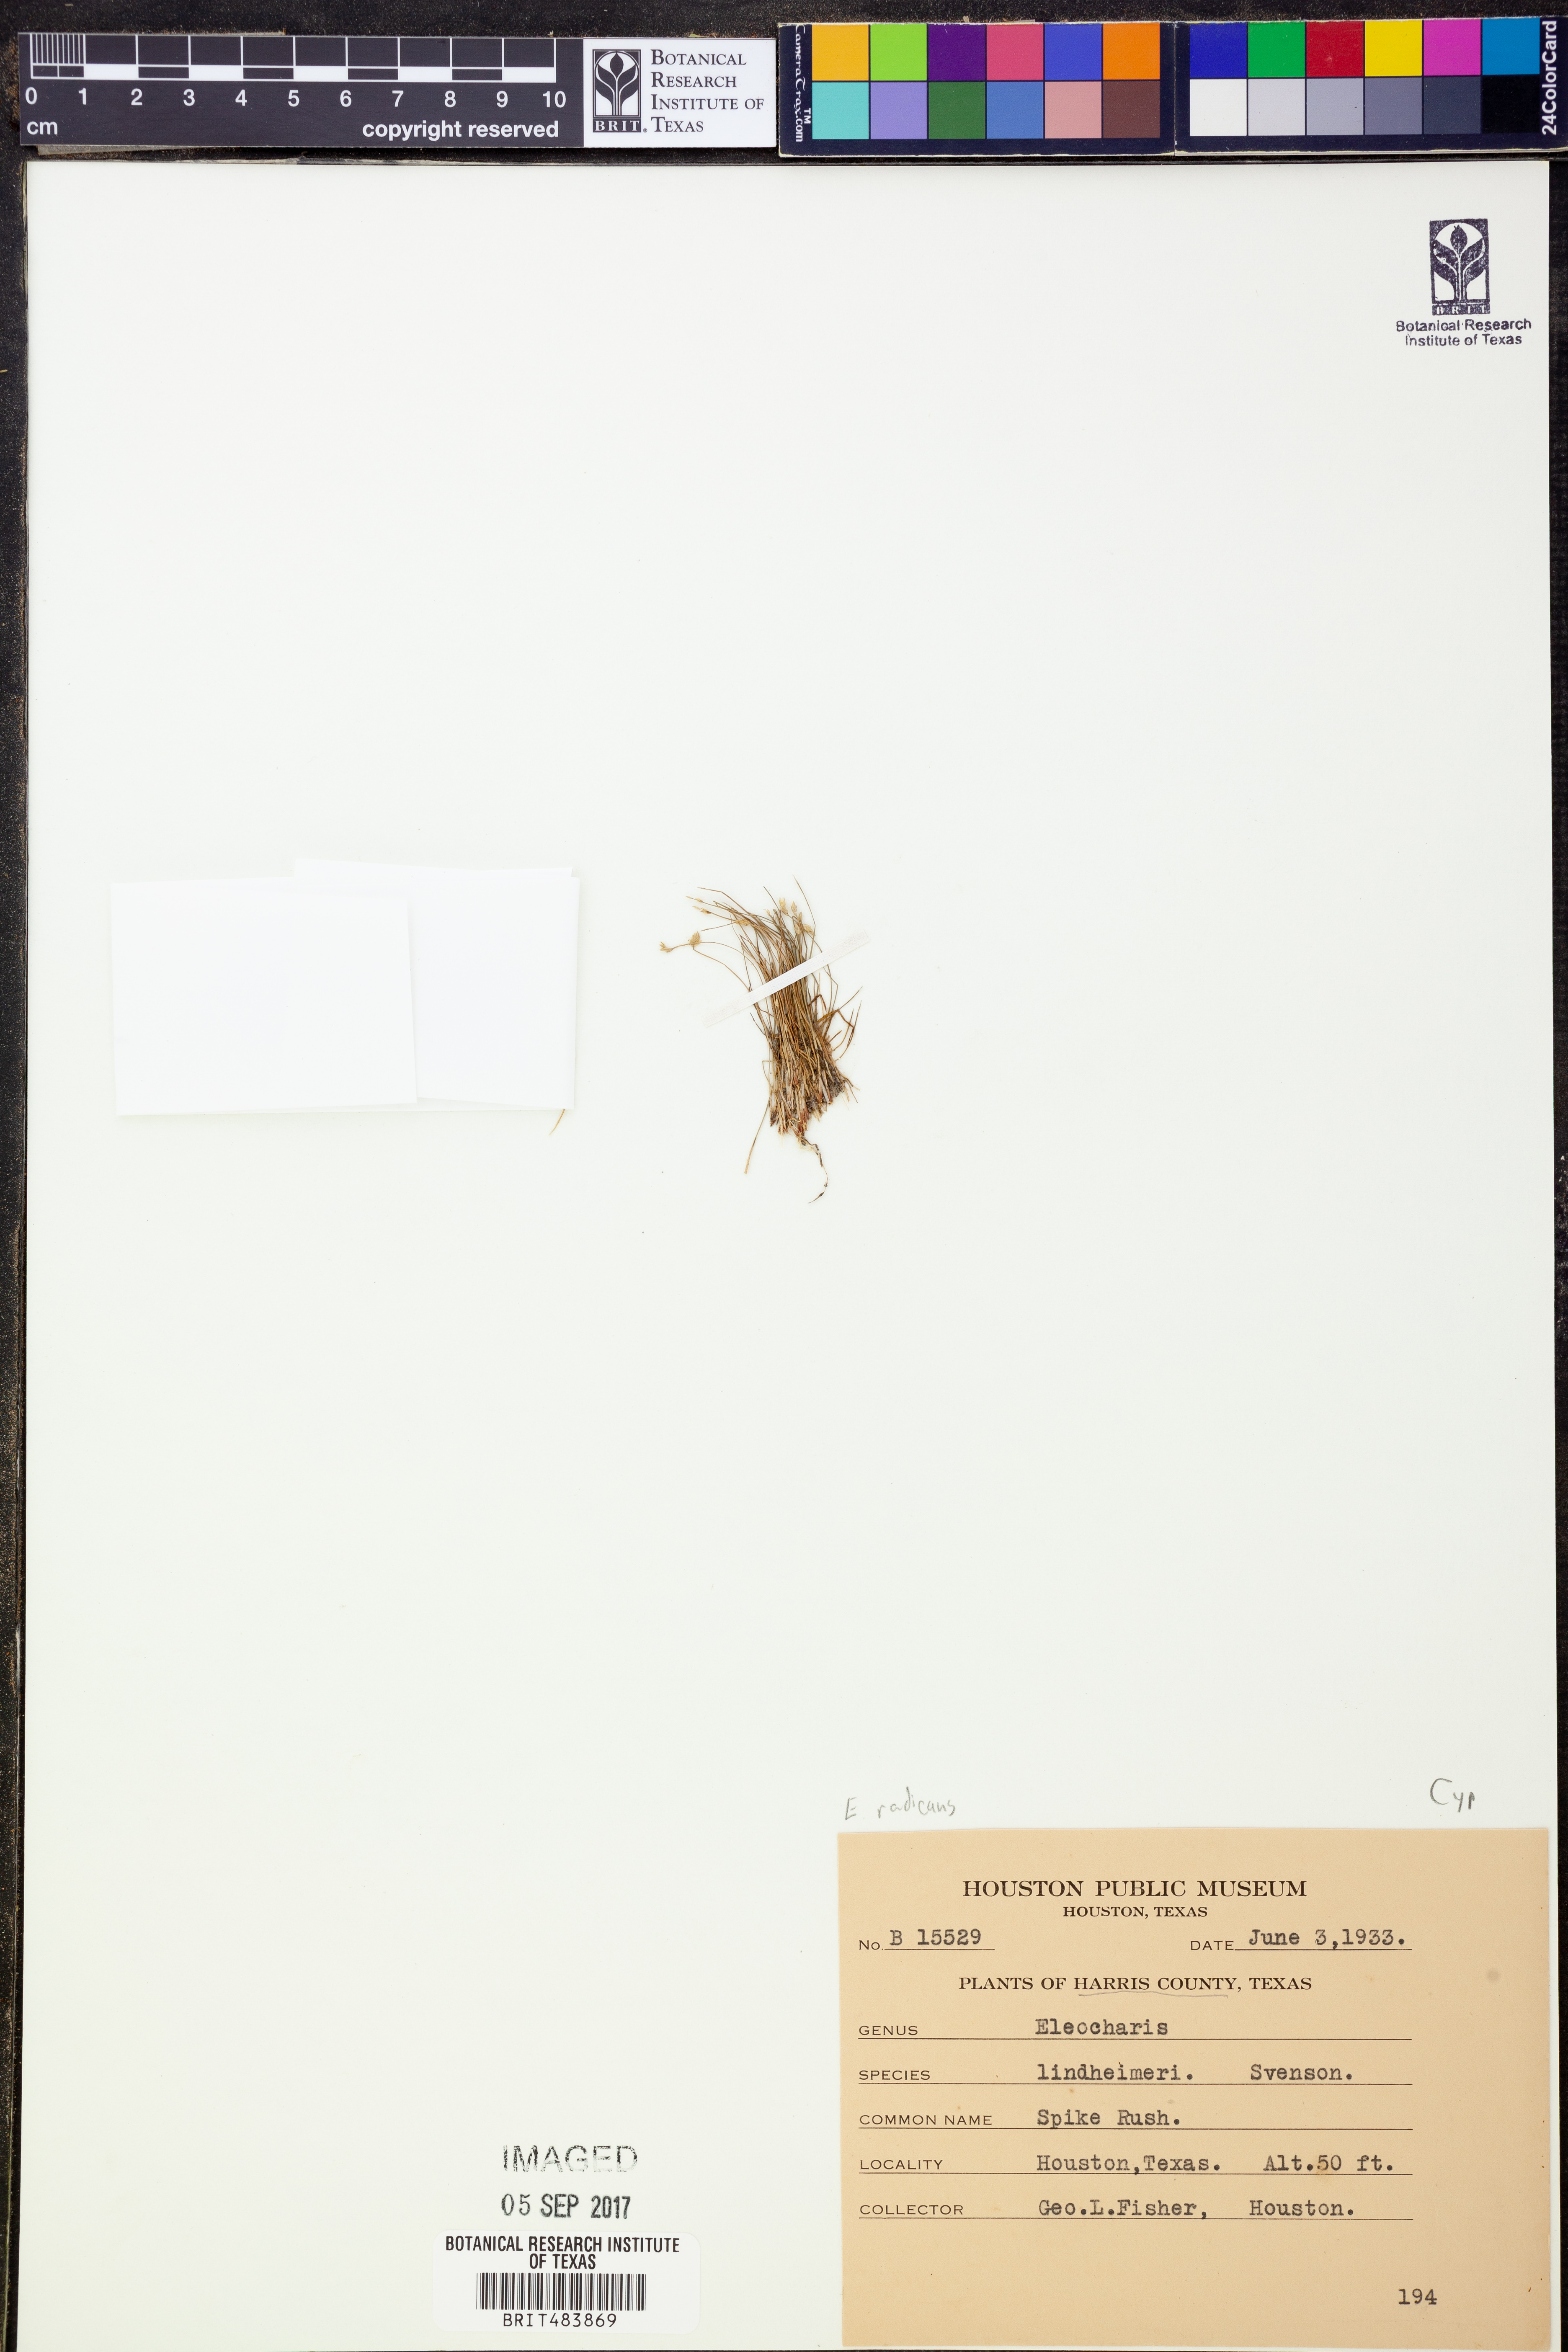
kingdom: Plantae
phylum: Tracheophyta
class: Liliopsida
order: Poales
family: Cyperaceae
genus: Eleocharis
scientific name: Eleocharis exigua
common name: Spikesedge
